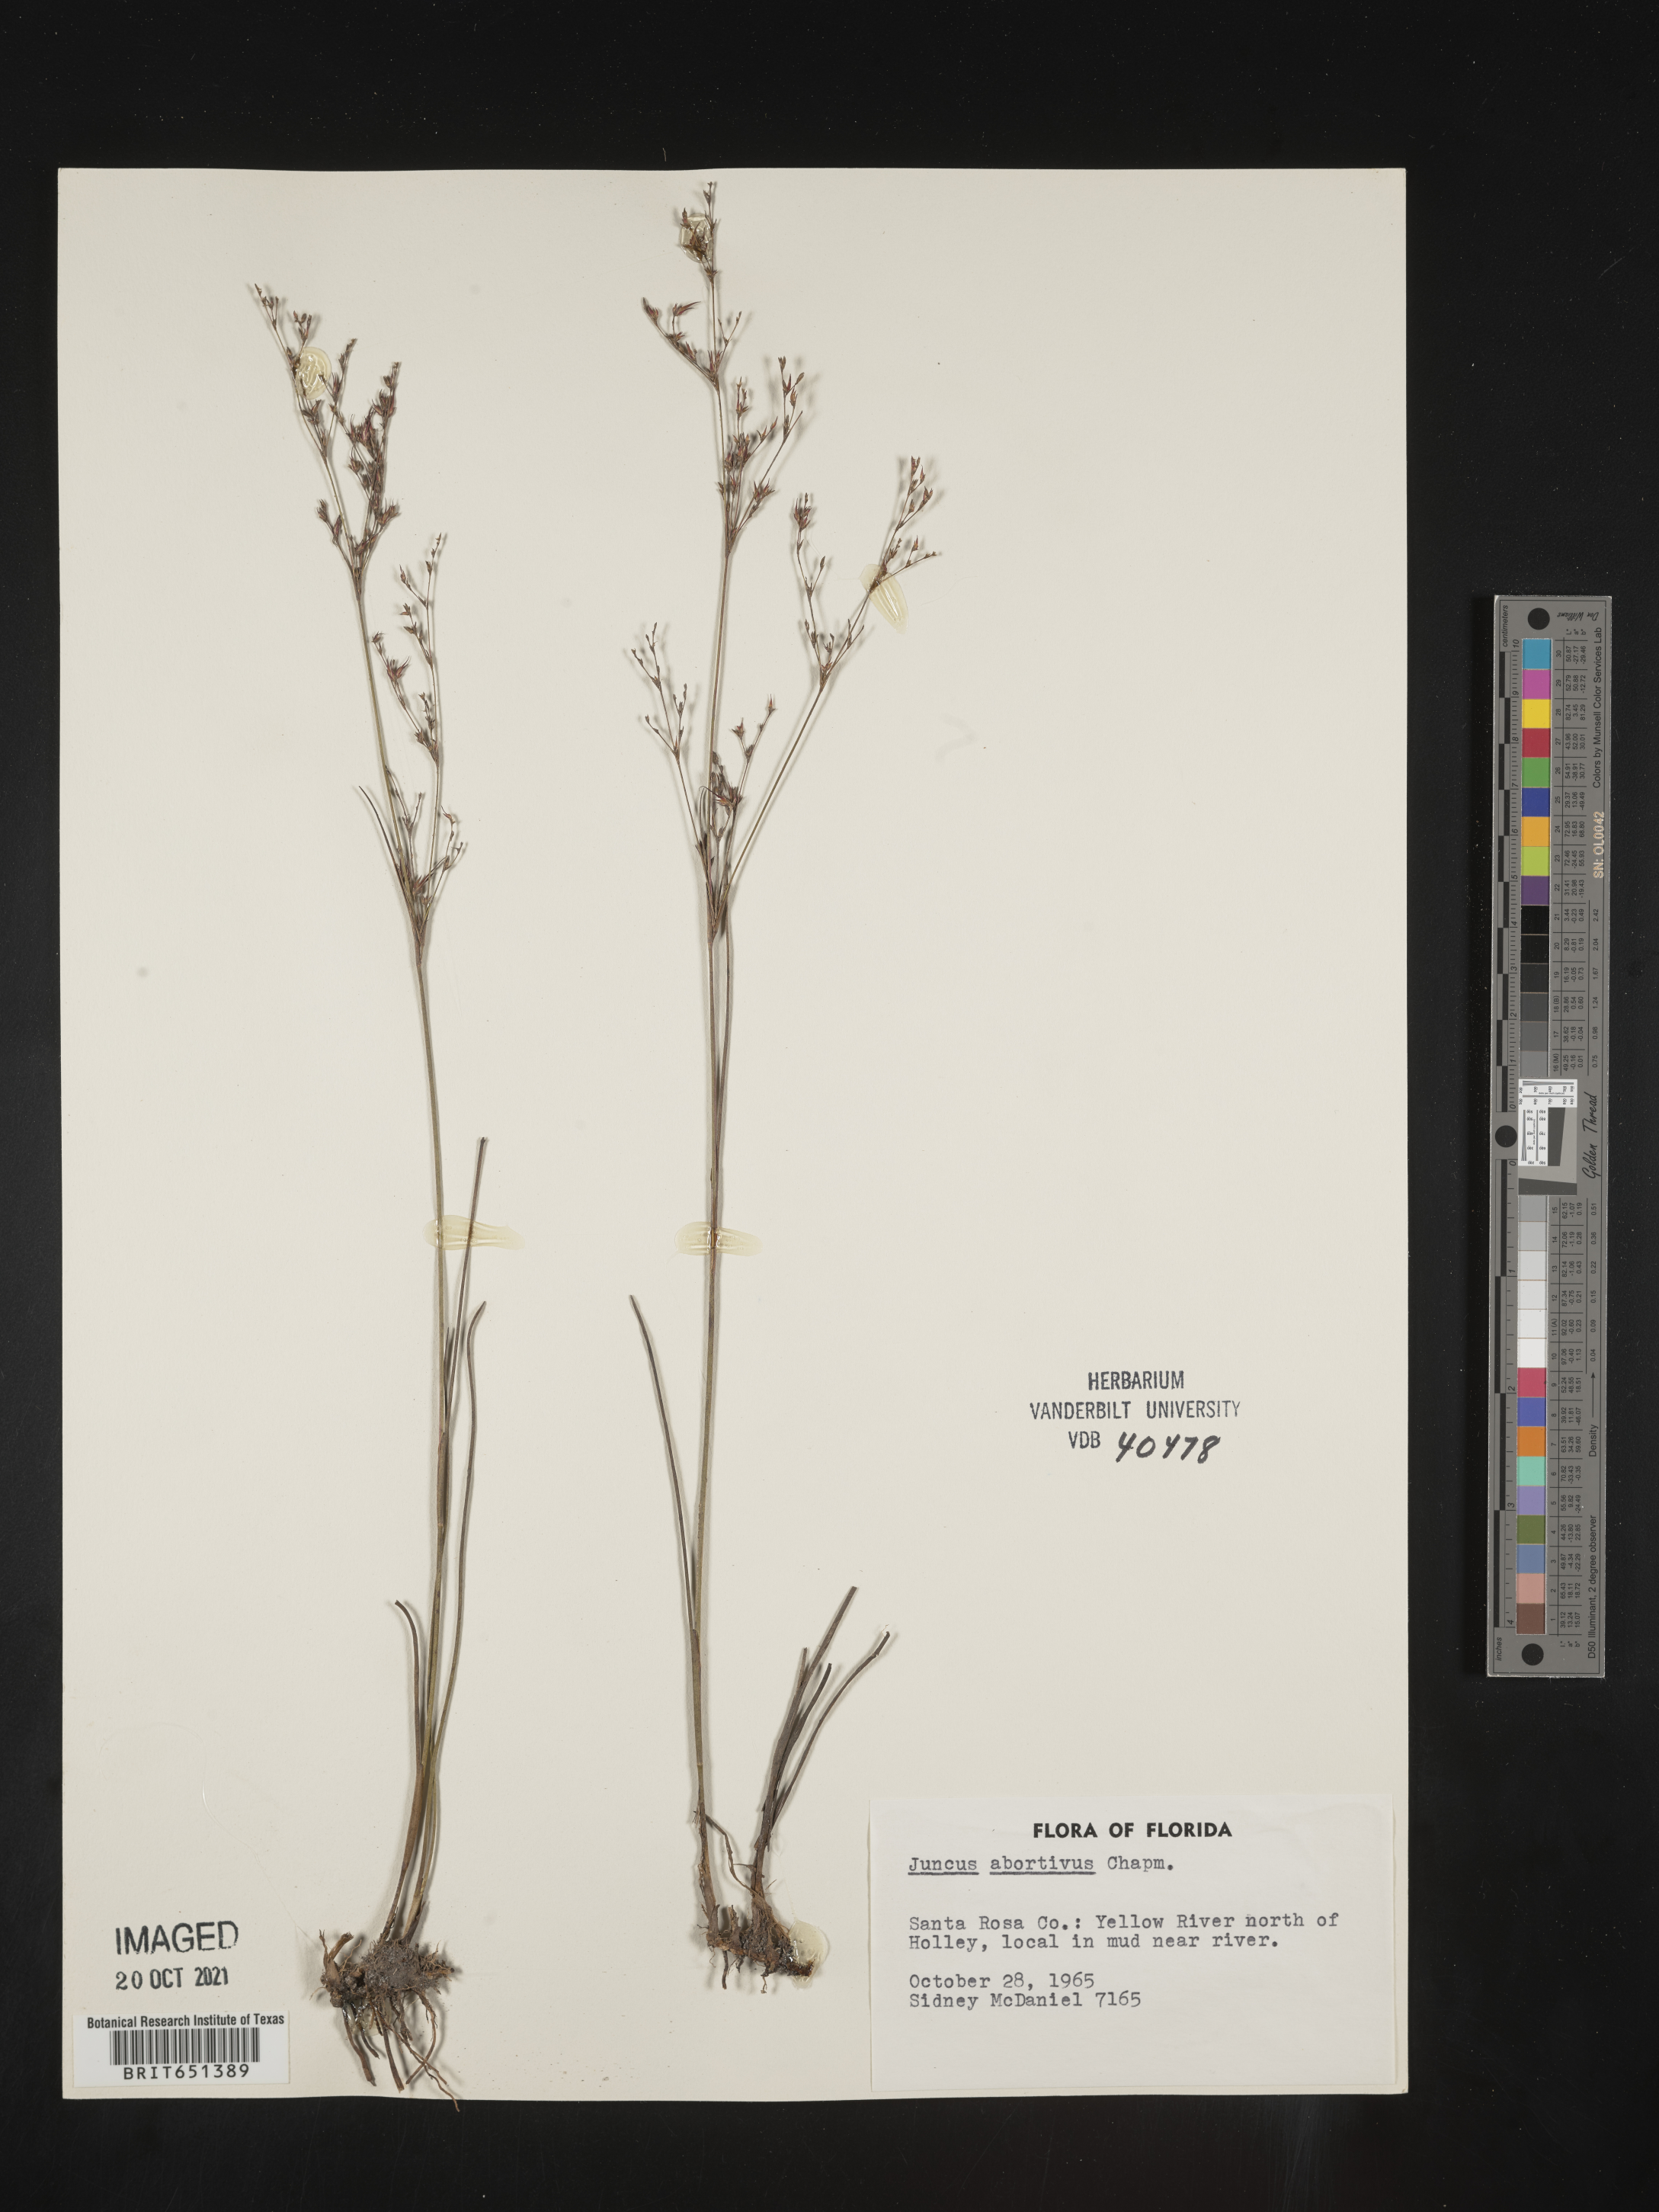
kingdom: Plantae
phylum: Tracheophyta
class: Liliopsida
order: Poales
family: Juncaceae
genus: Juncus
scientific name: Juncus abortivus
